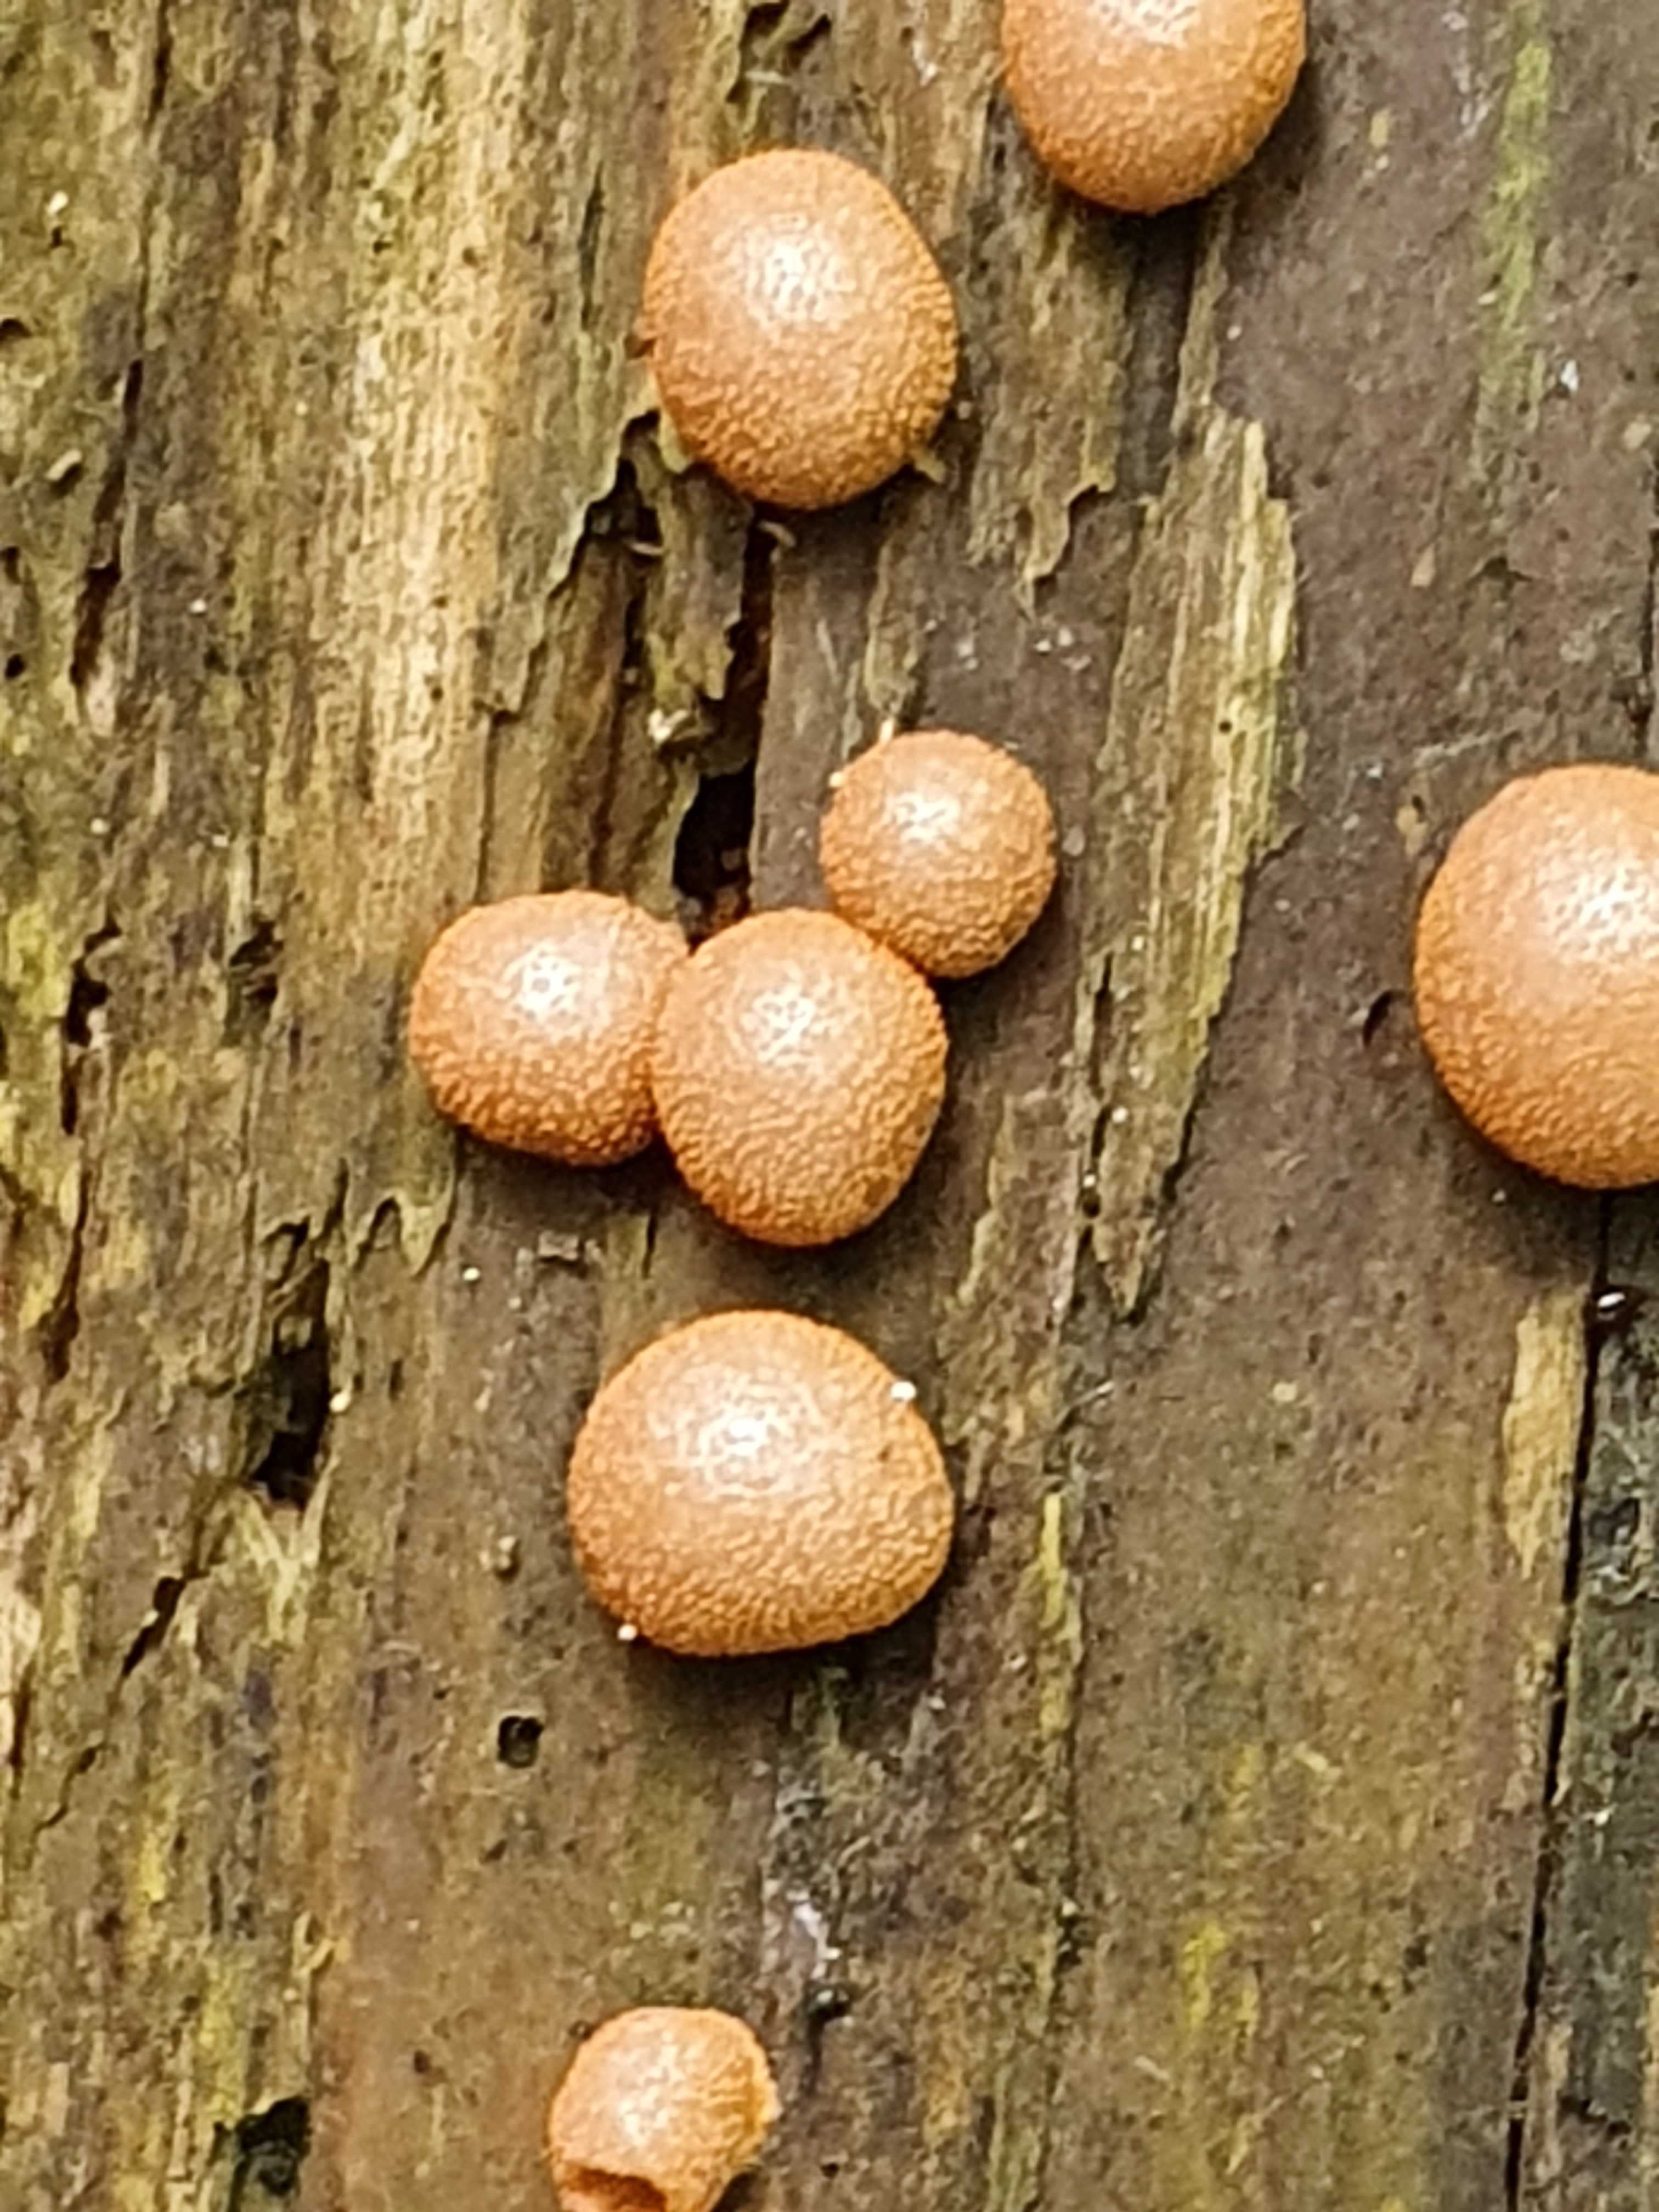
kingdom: Protozoa
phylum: Mycetozoa
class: Myxomycetes
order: Cribrariales
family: Tubiferaceae
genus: Lycogala
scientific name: Lycogala epidendrum
